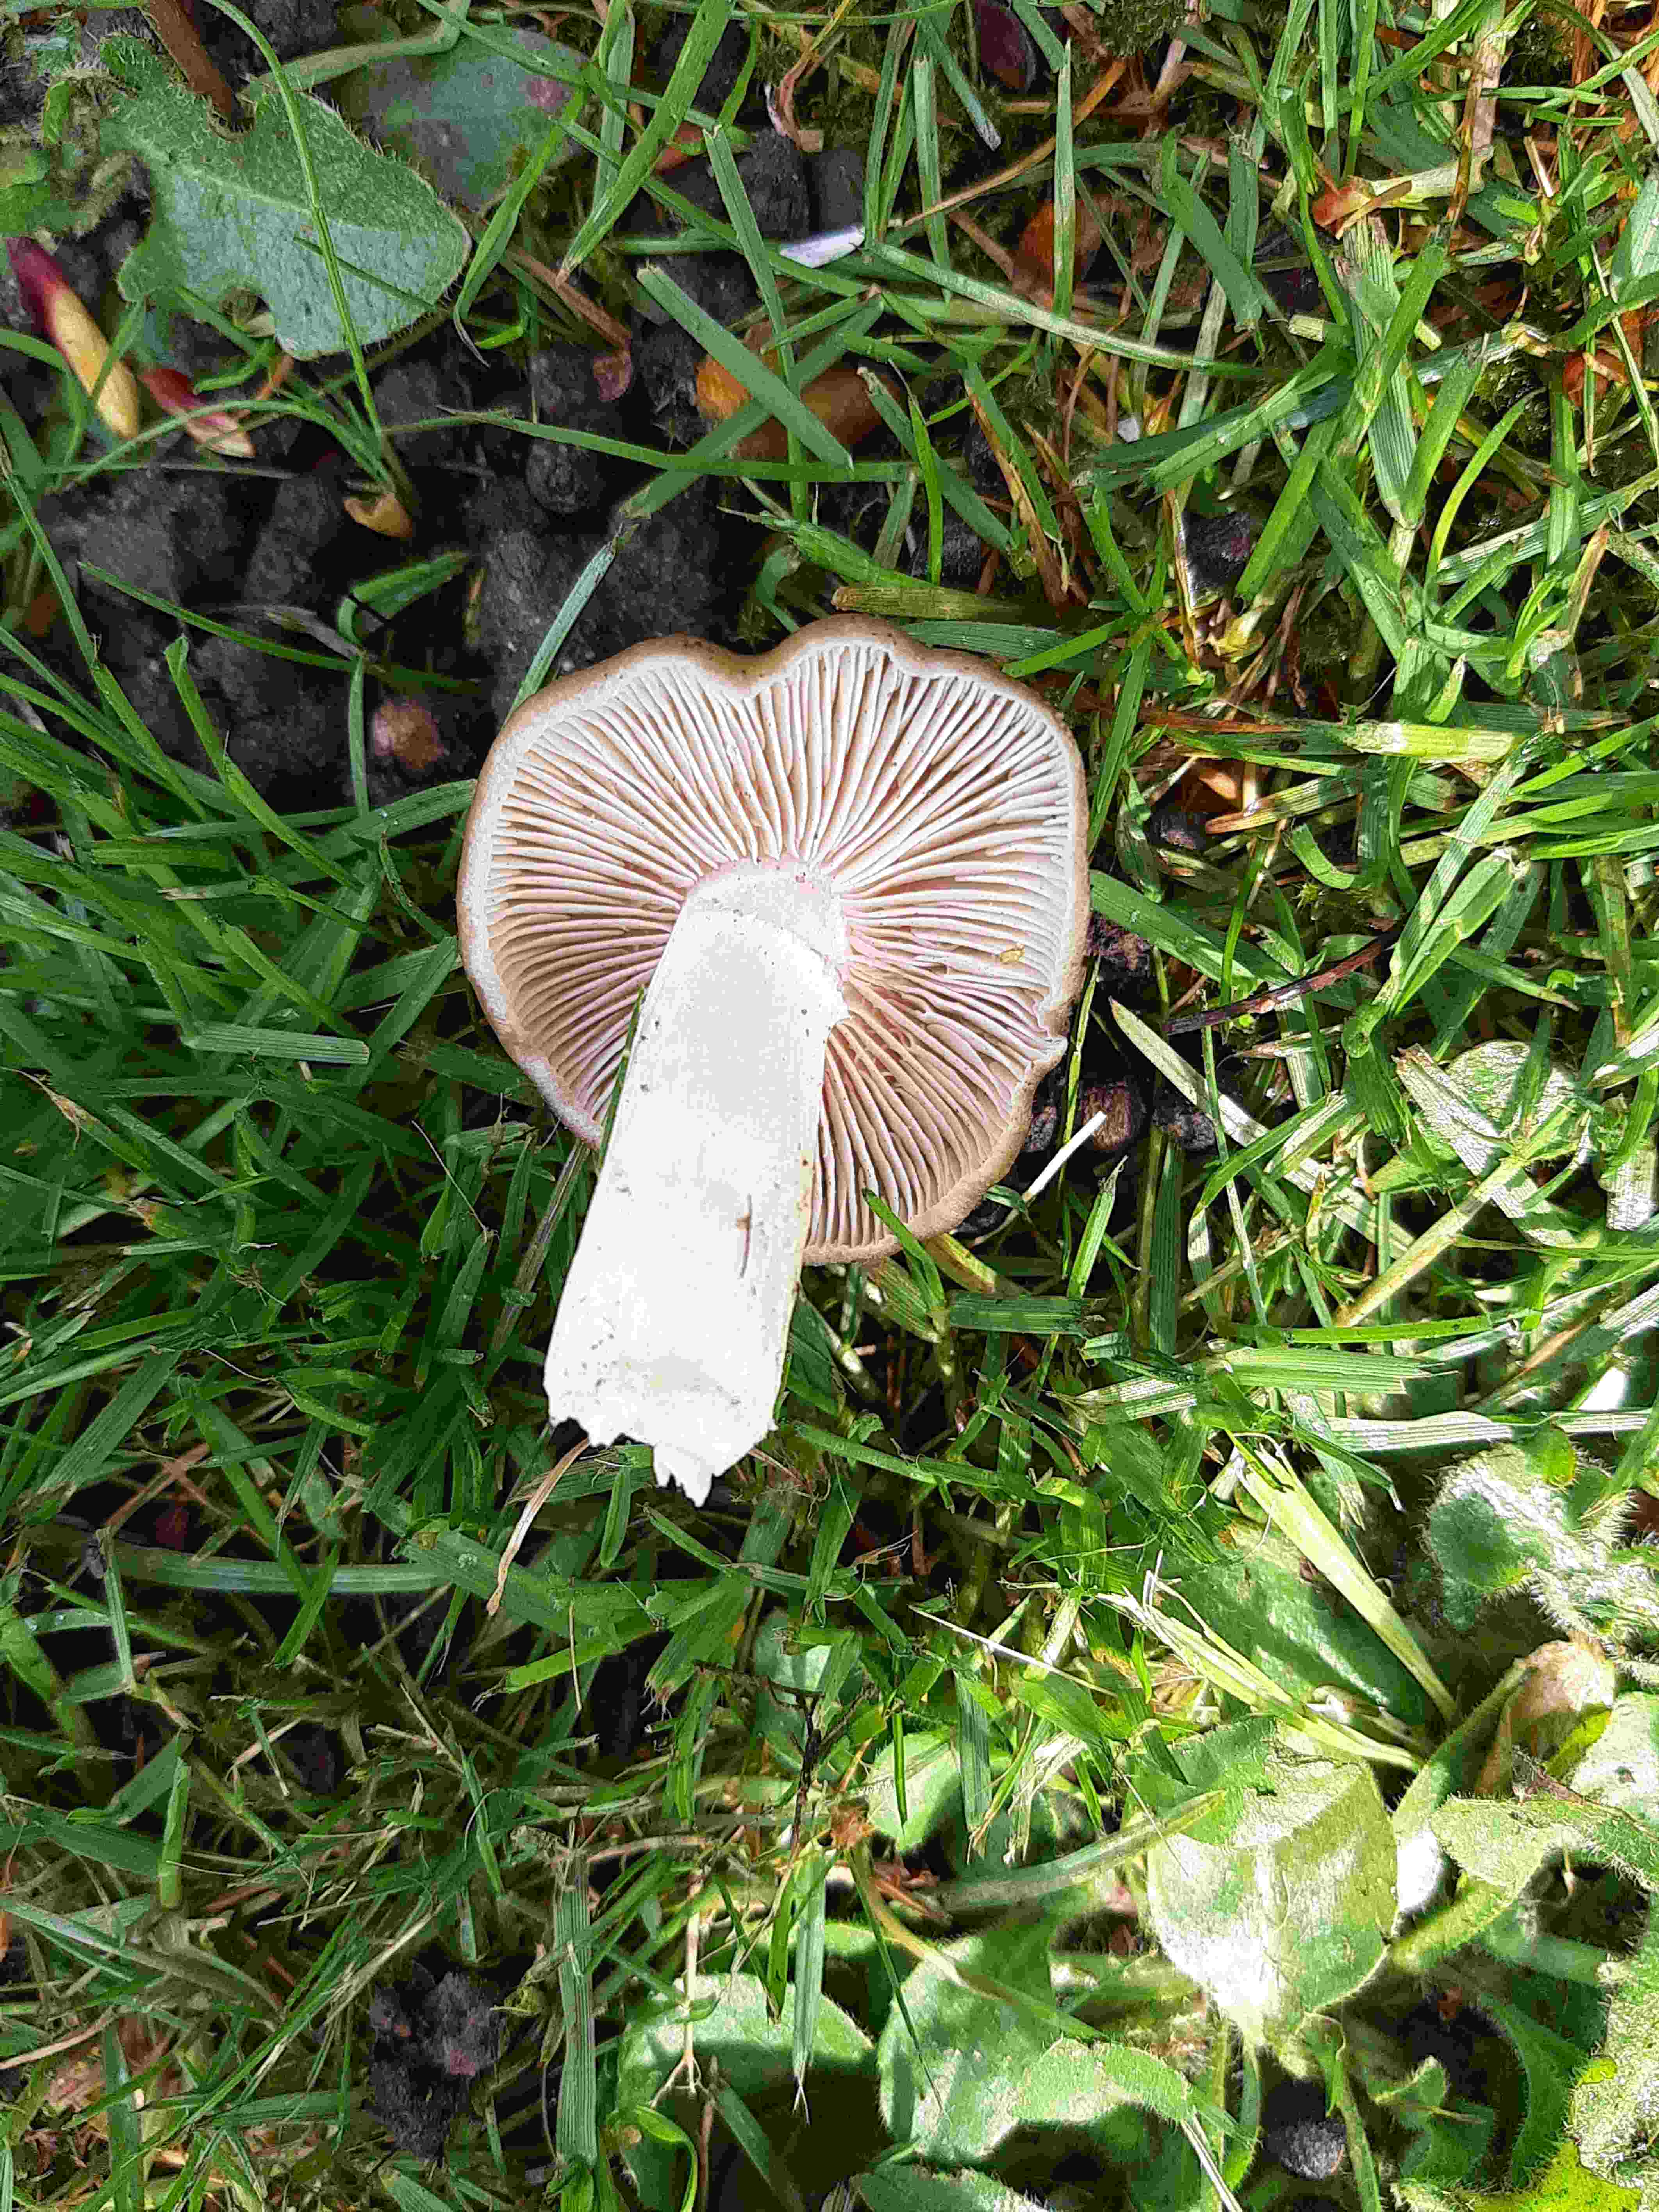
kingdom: Fungi
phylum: Basidiomycota
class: Agaricomycetes
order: Agaricales
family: Entolomataceae
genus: Entoloma
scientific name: Entoloma clypeatum
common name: flammet rødblad
